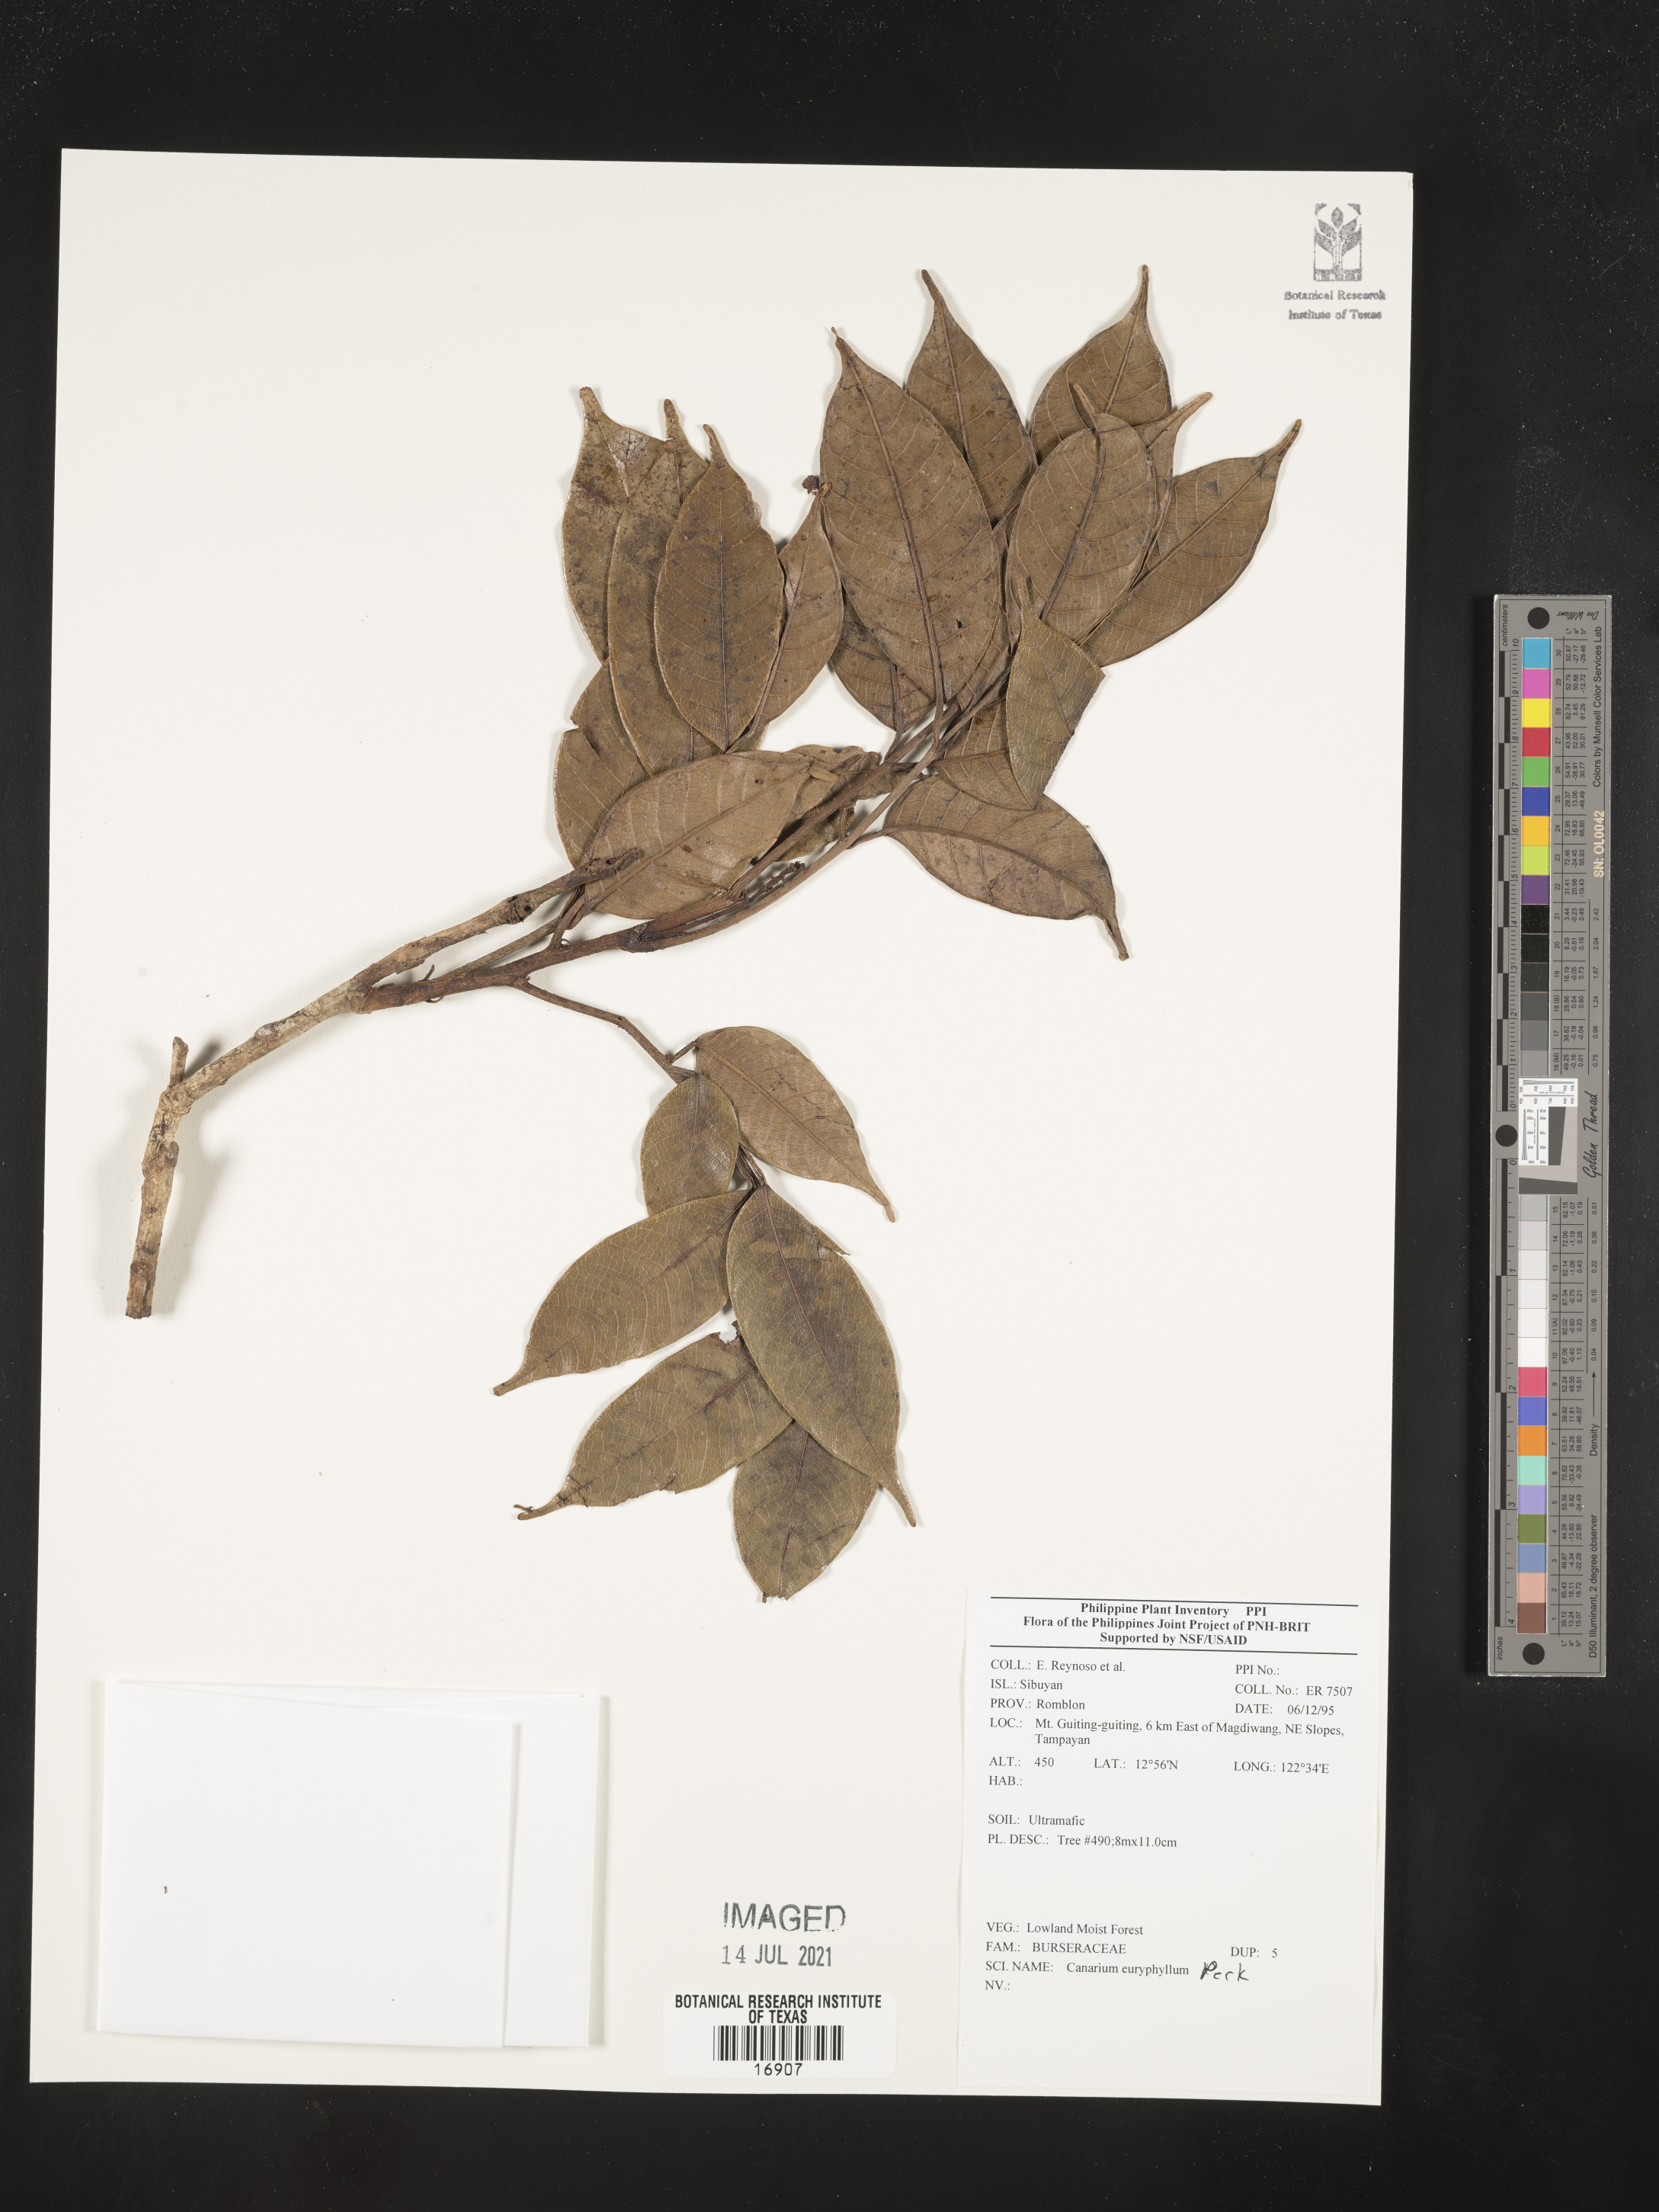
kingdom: Plantae
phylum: Tracheophyta
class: Magnoliopsida
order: Sapindales
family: Burseraceae
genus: Canarium
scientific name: Canarium euryphyllum
